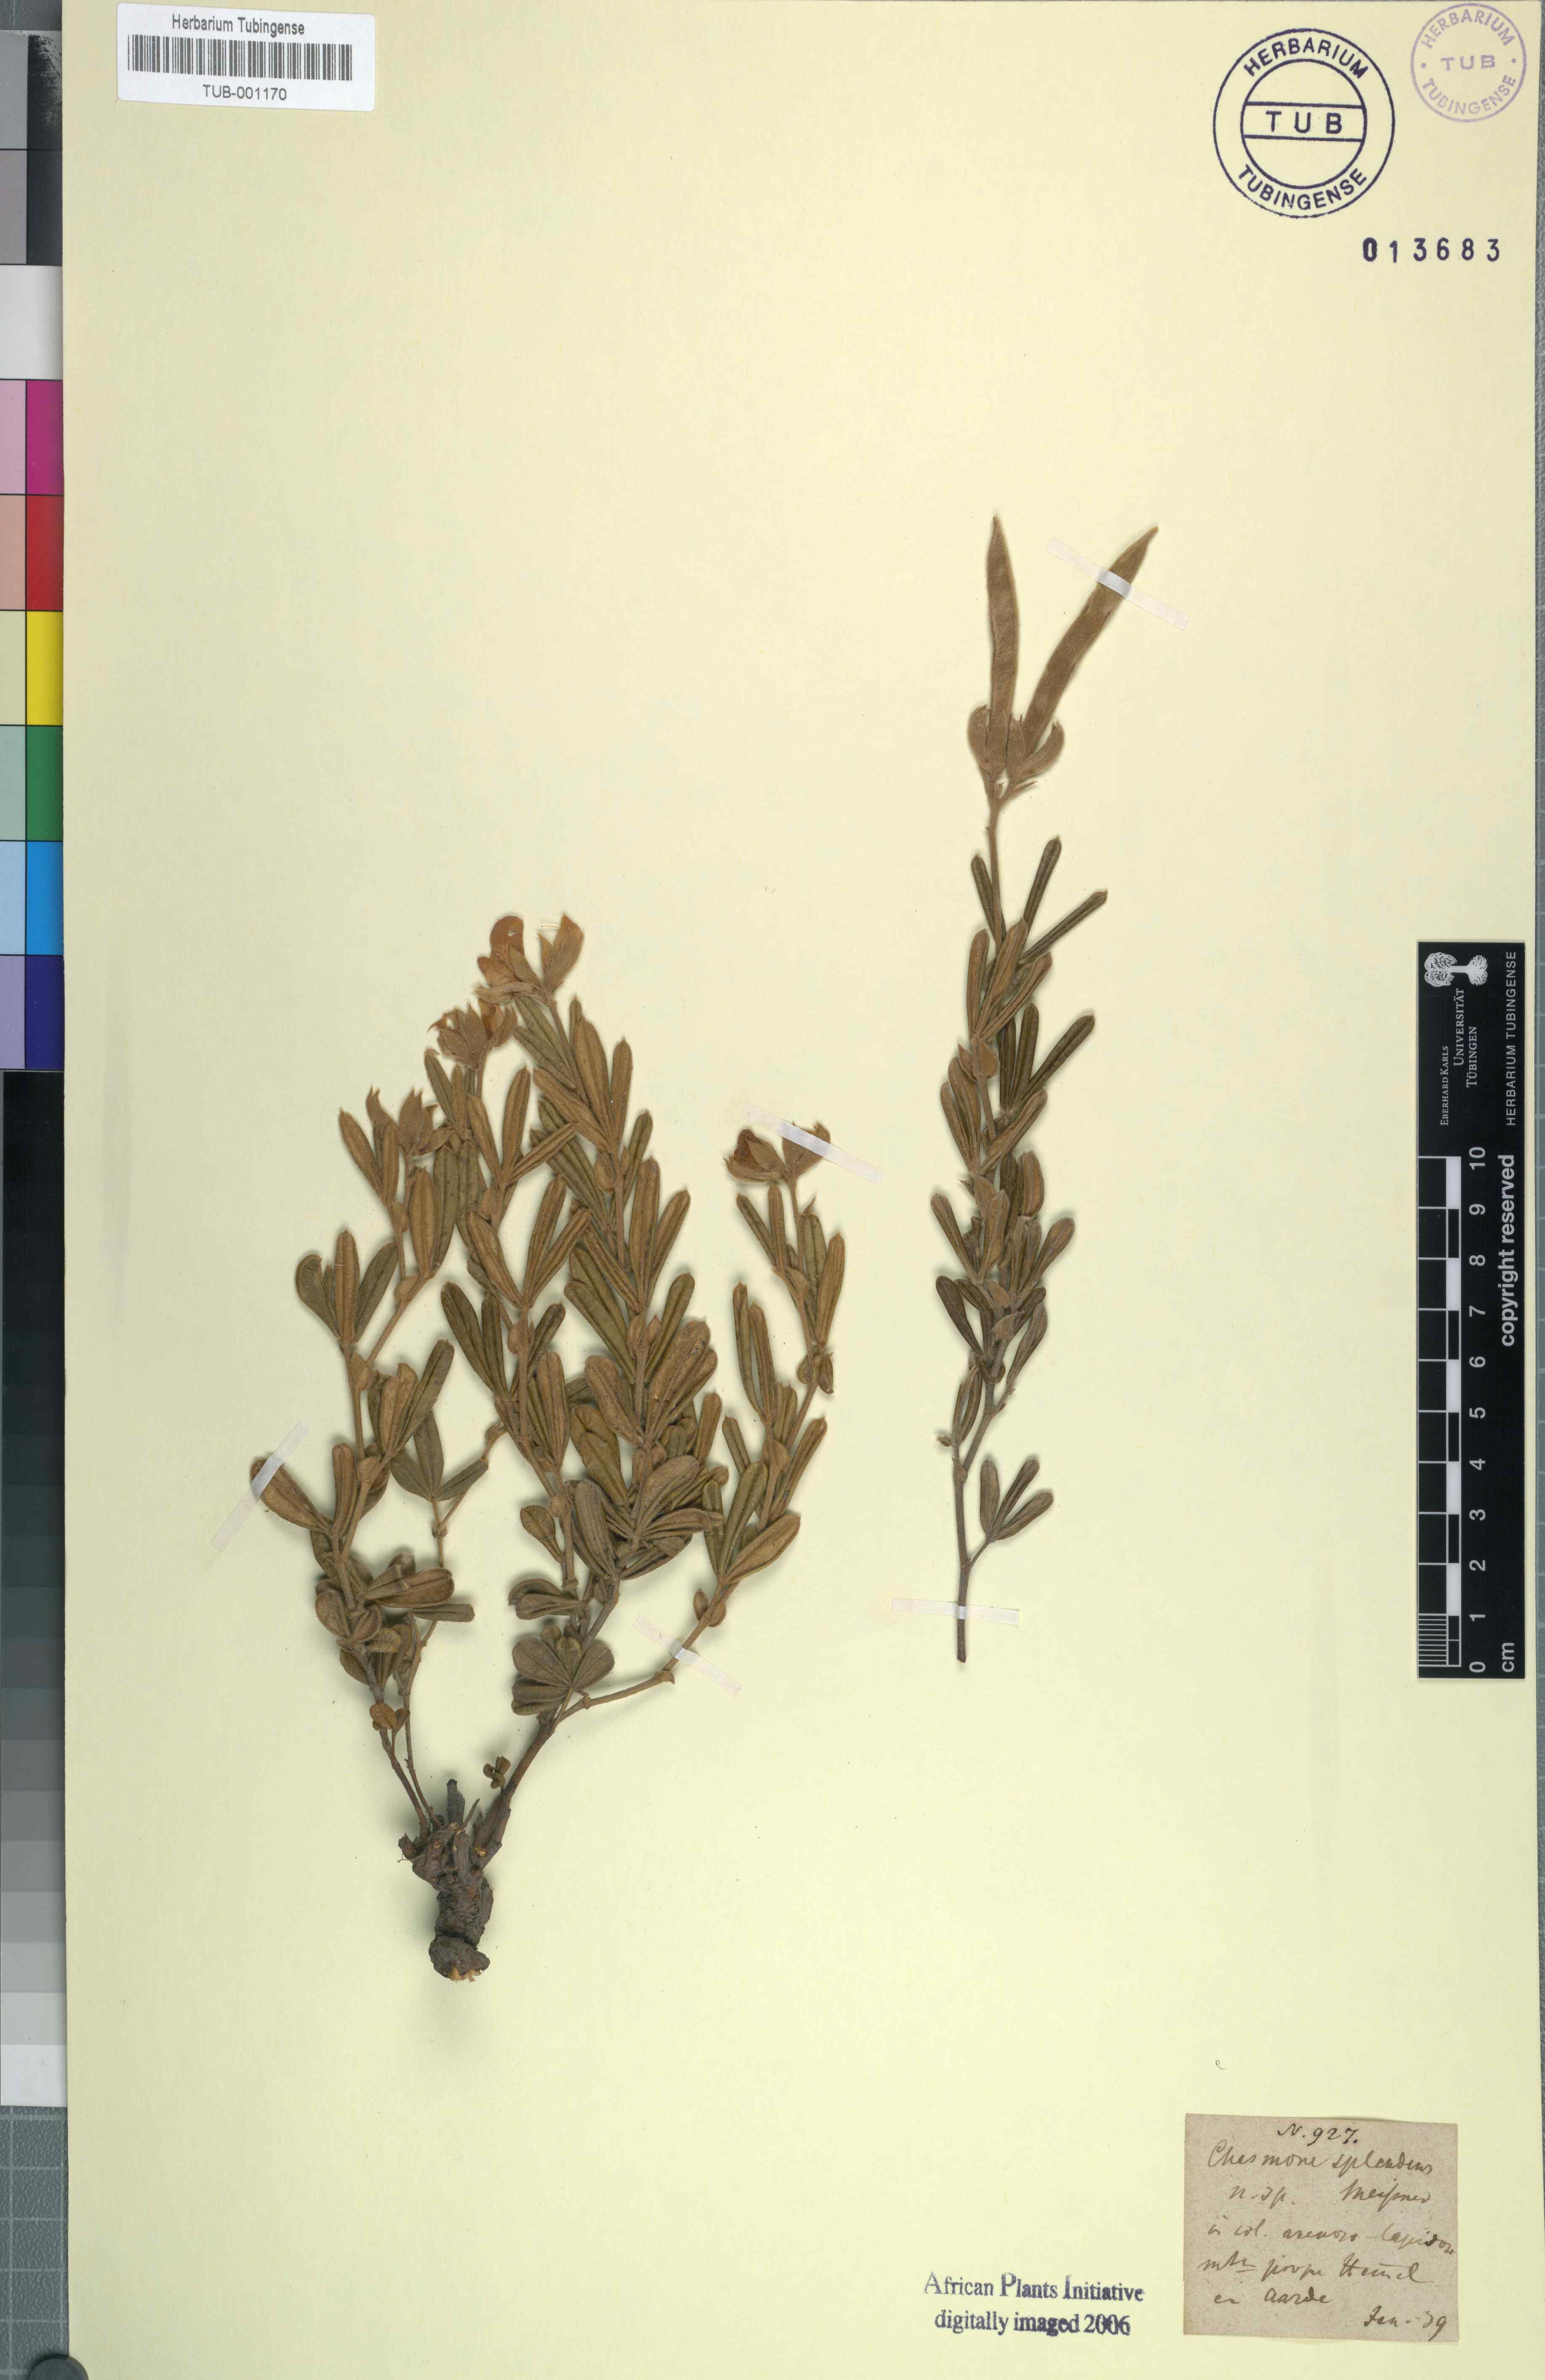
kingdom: Plantae
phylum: Tracheophyta
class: Magnoliopsida
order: Fabales
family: Fabaceae
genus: Argyrolobium
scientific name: Argyrolobium splendens
